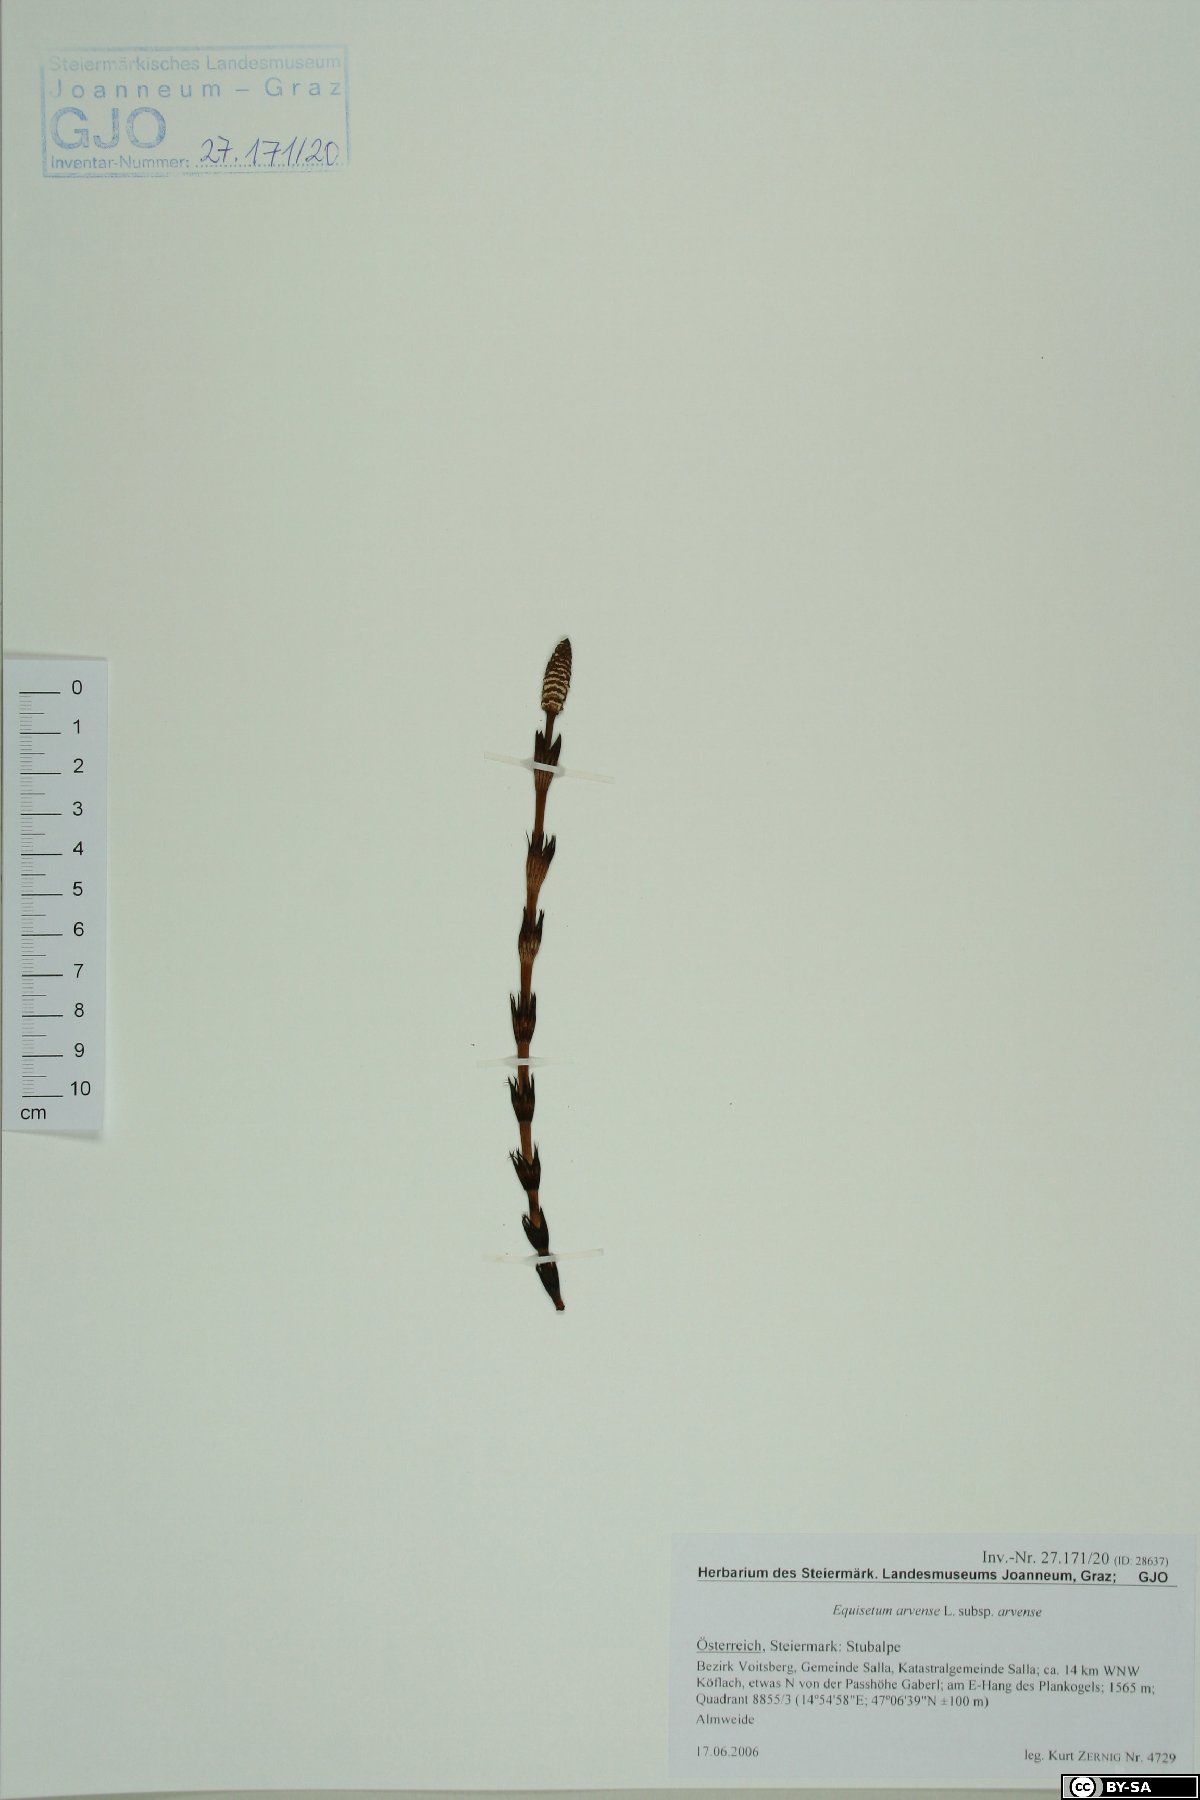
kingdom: Plantae
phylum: Tracheophyta
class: Polypodiopsida
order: Equisetales
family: Equisetaceae
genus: Equisetum
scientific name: Equisetum arvense
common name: Field horsetail
